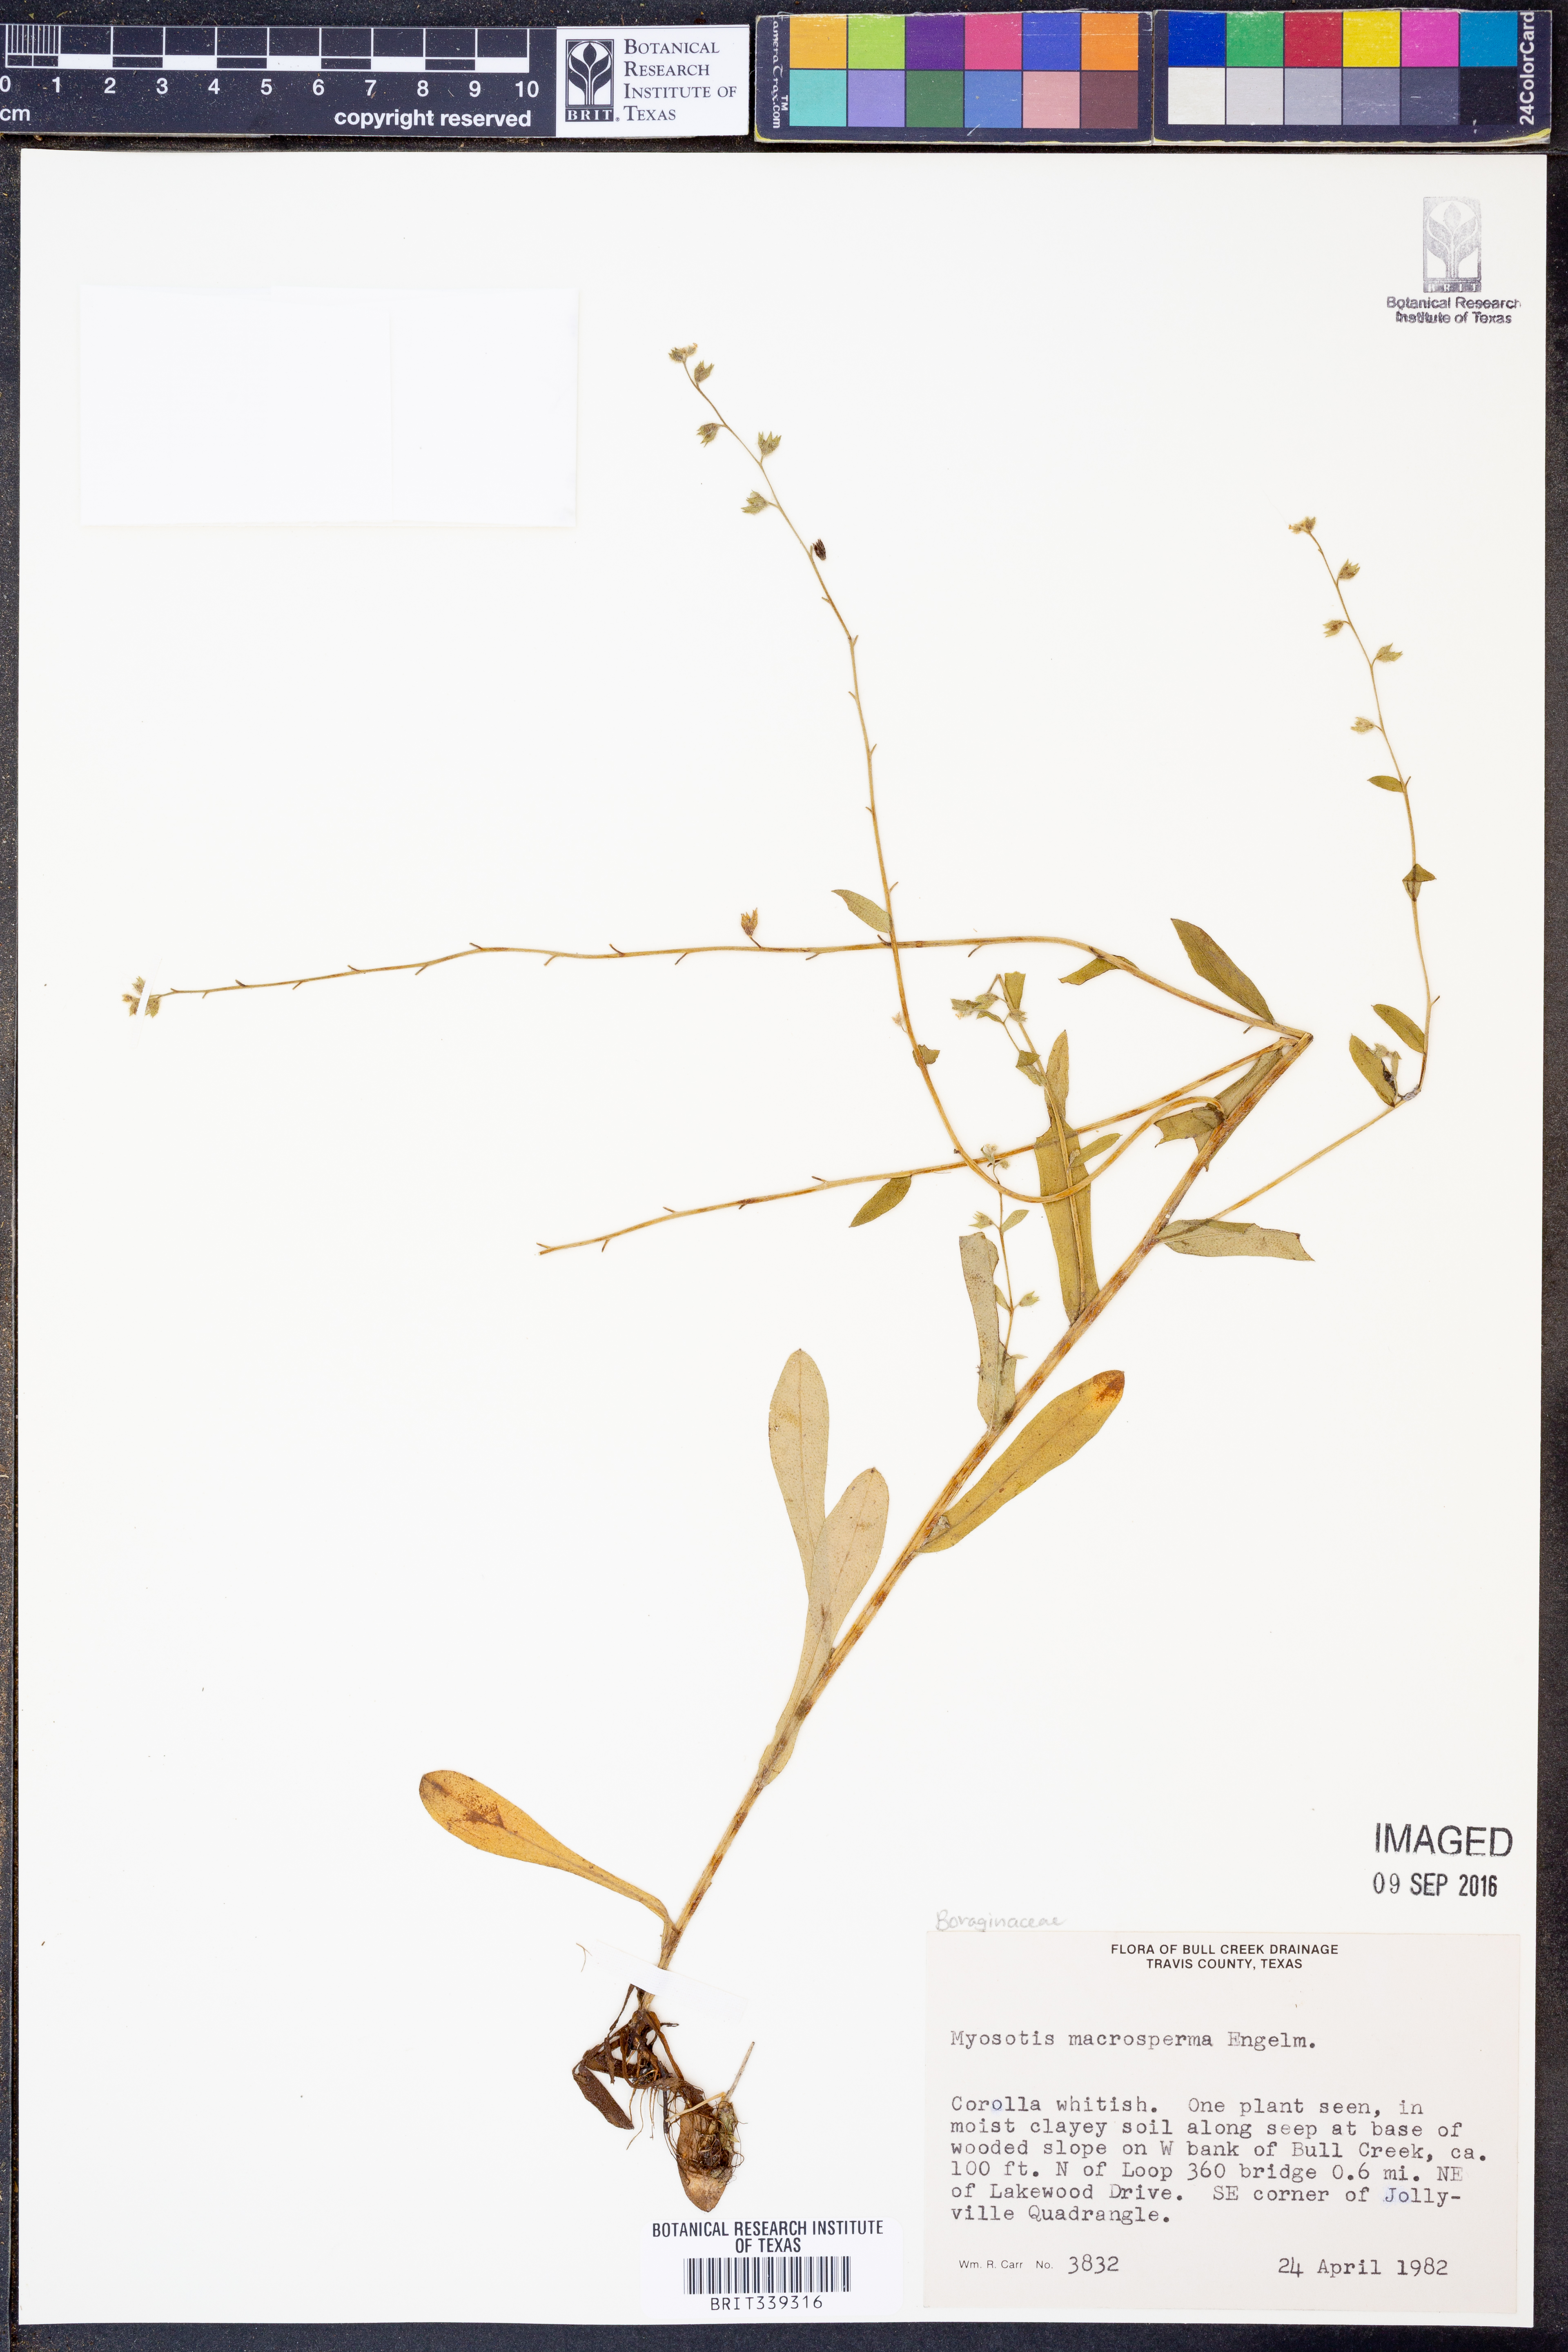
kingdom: Plantae
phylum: Tracheophyta
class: Magnoliopsida
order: Boraginales
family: Boraginaceae
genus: Myosotis
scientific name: Myosotis macrosperma
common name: Large-seed forget-me-not
